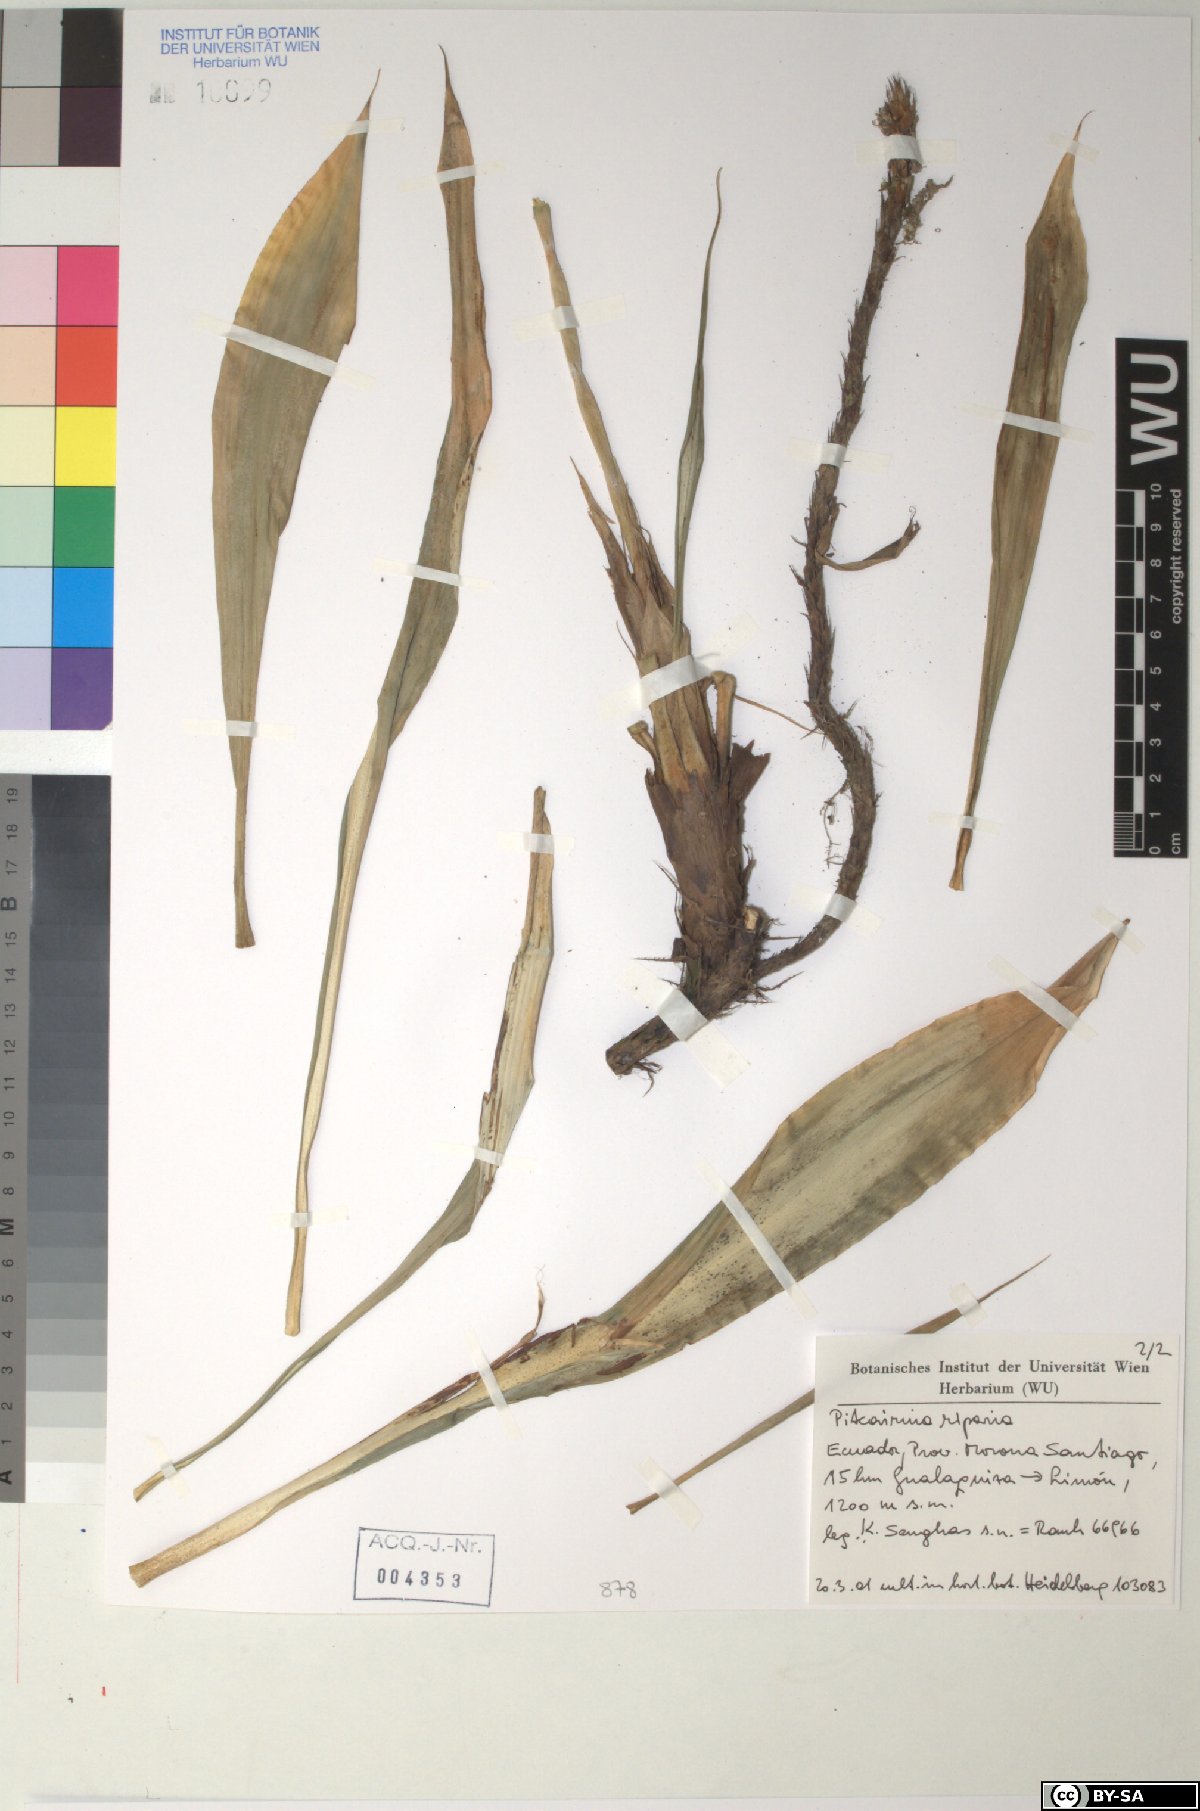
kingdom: Plantae
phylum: Tracheophyta
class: Liliopsida
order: Poales
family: Bromeliaceae
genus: Pitcairnia
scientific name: Pitcairnia riparia
